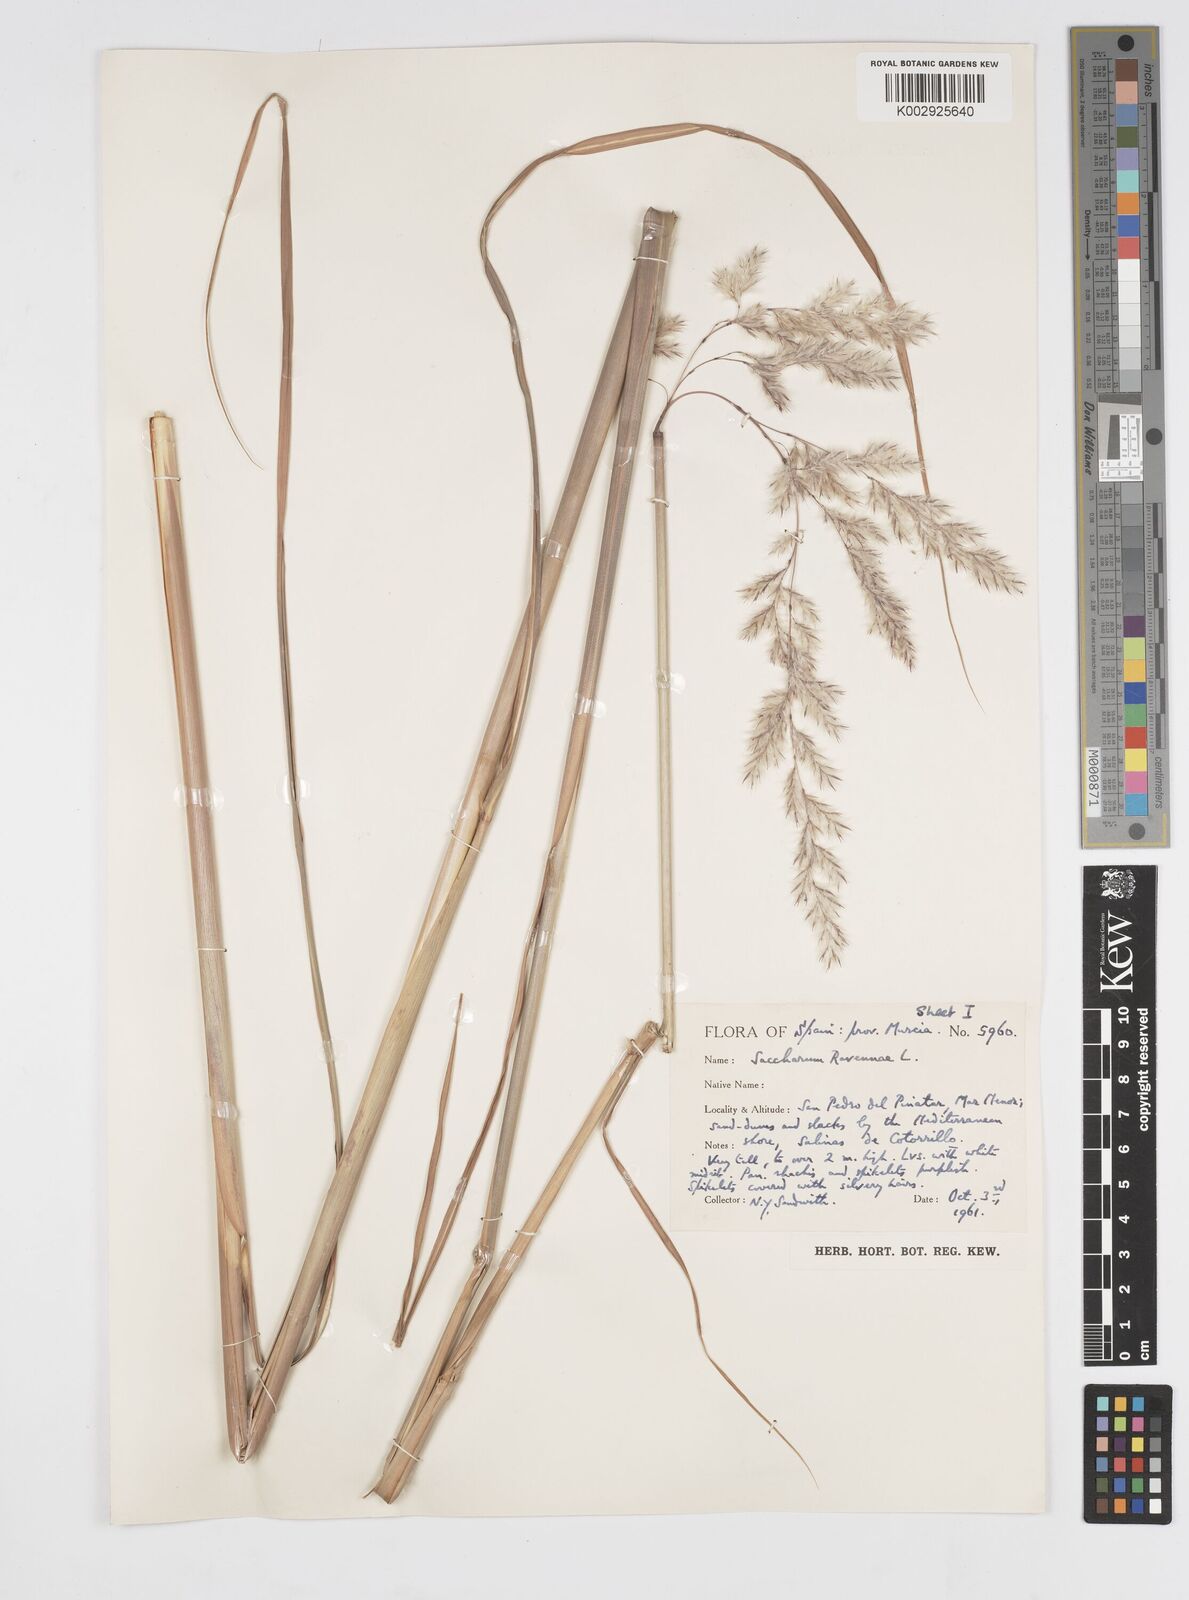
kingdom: Plantae
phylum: Tracheophyta
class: Liliopsida
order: Poales
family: Poaceae
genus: Tripidium
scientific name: Tripidium ravennae
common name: Ravenna grass
